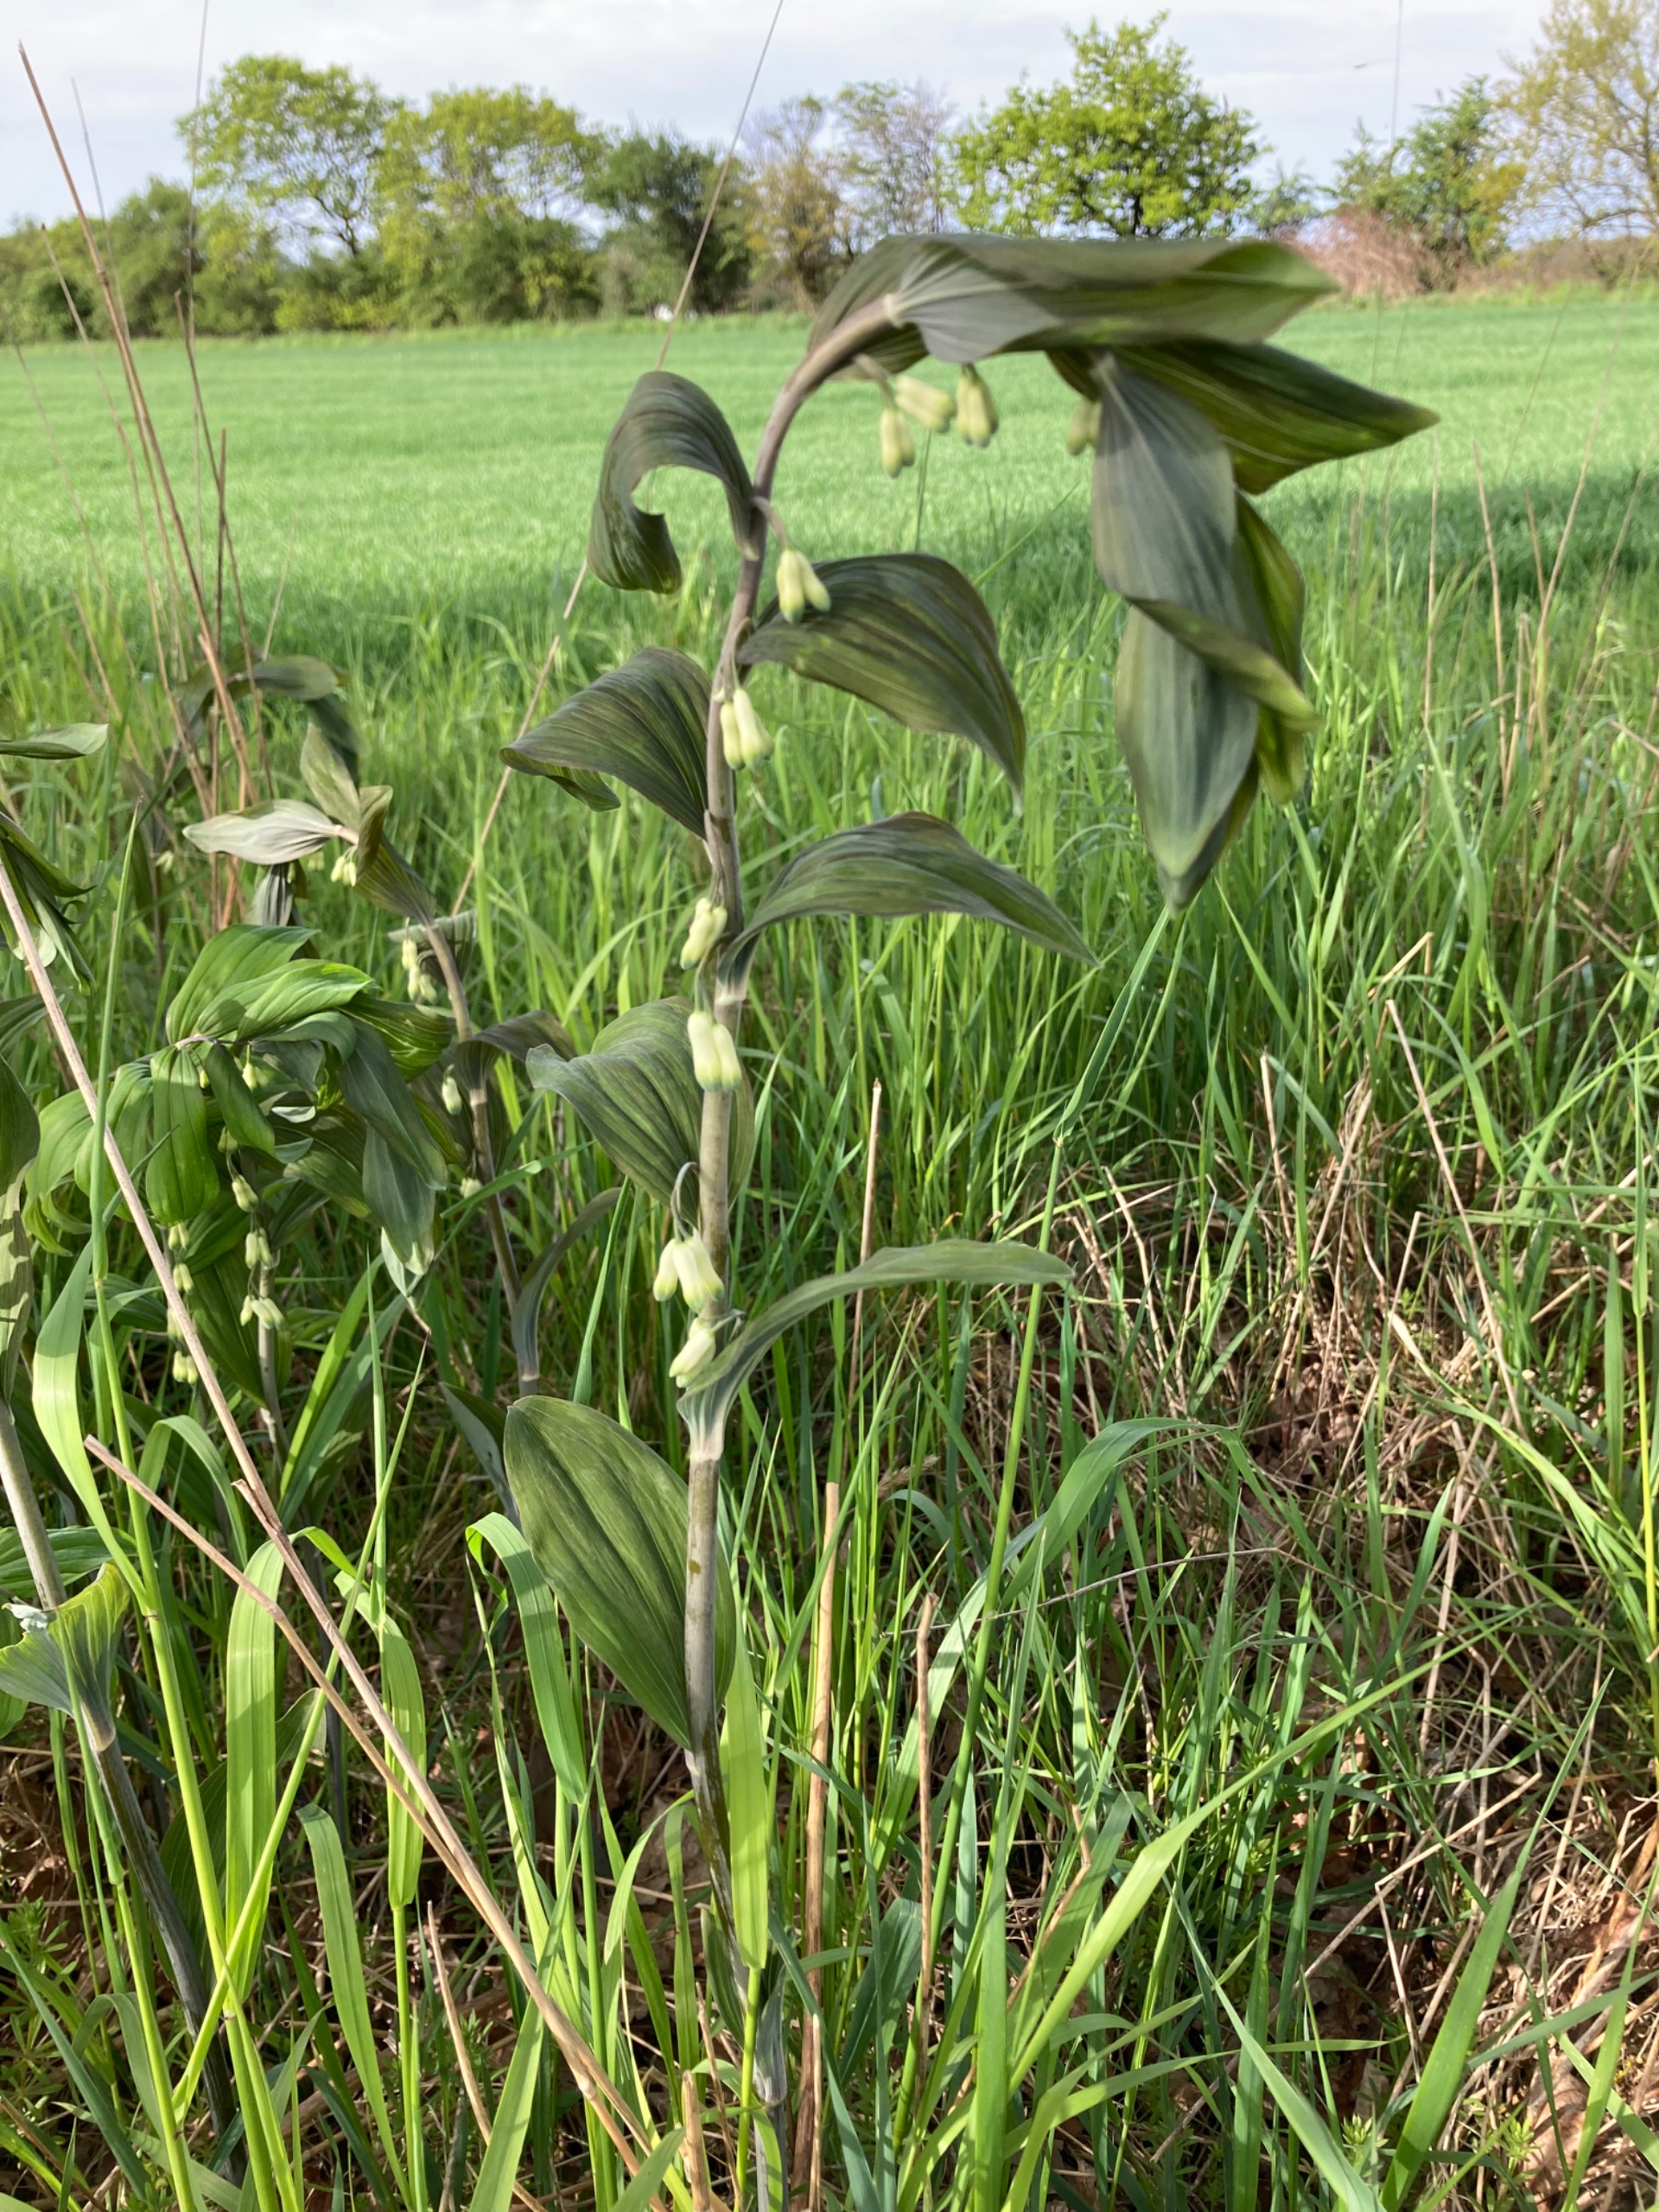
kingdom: Plantae
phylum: Tracheophyta
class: Liliopsida
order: Asparagales
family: Asparagaceae
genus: Polygonatum
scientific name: Polygonatum
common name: Hybrid-konval
